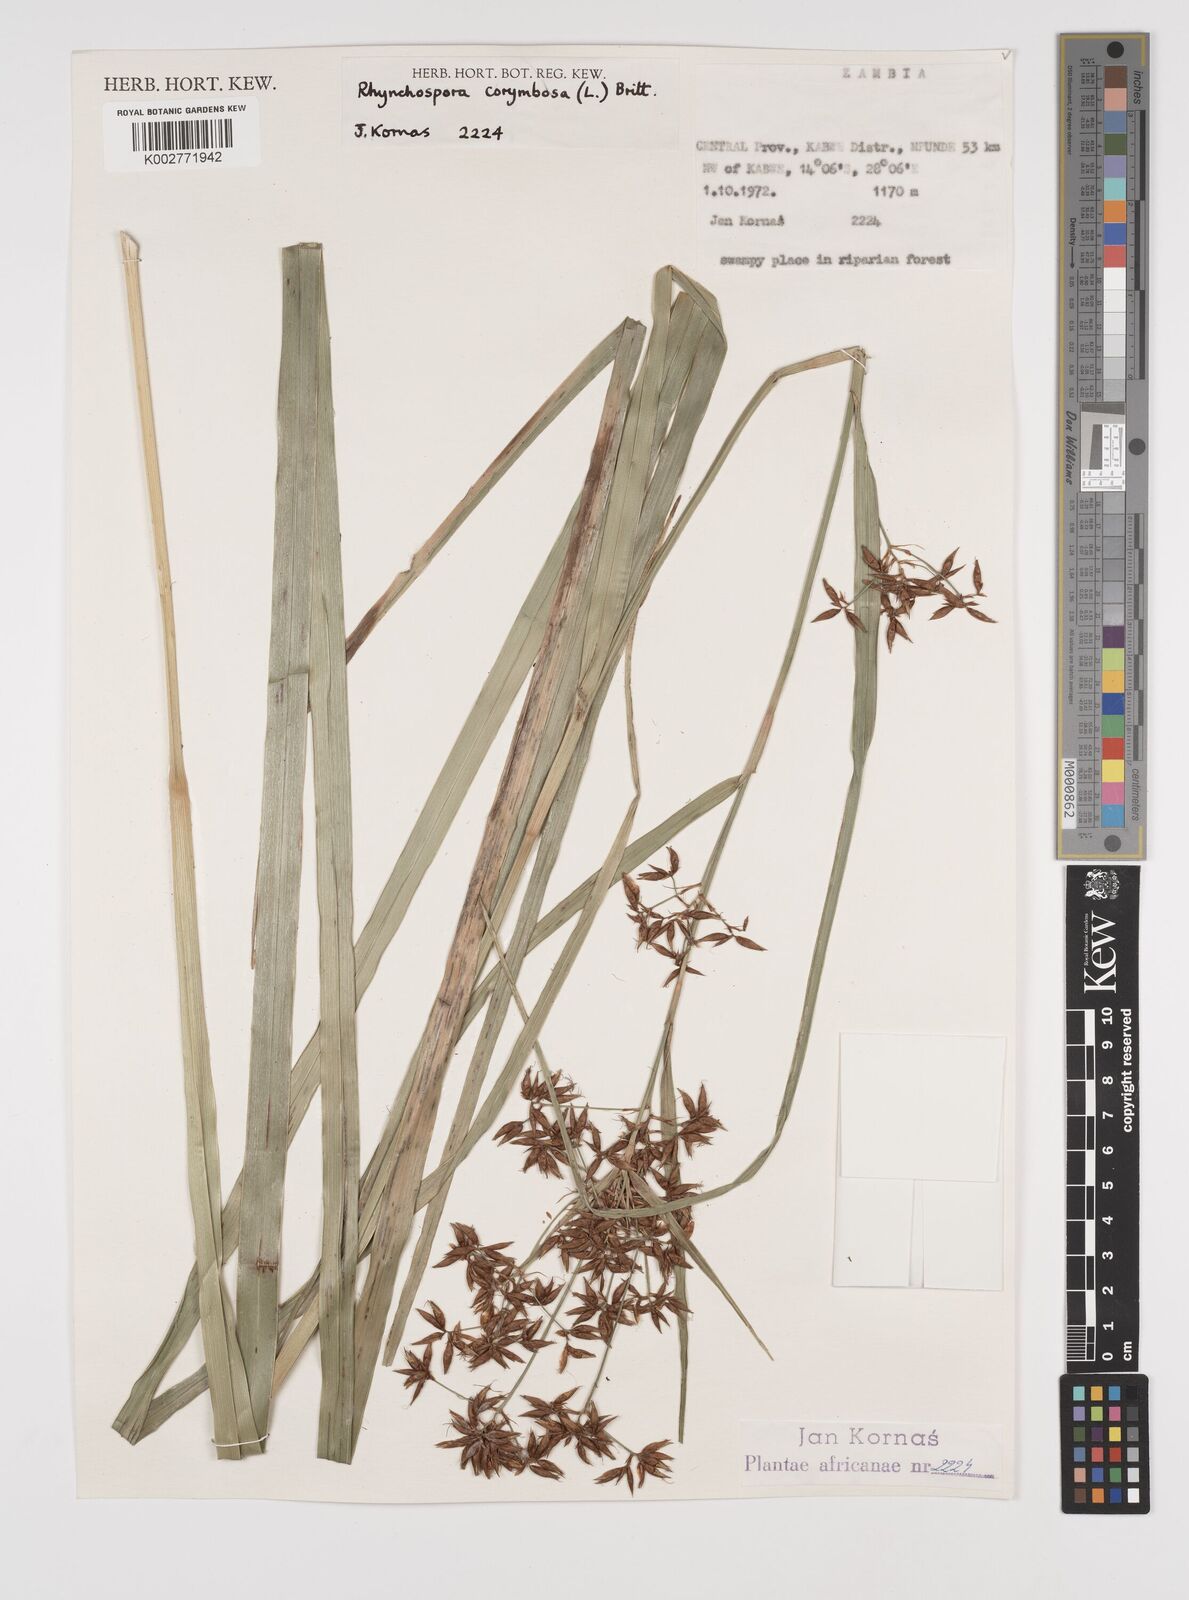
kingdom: Plantae
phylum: Tracheophyta
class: Liliopsida
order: Poales
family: Cyperaceae
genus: Rhynchospora
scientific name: Rhynchospora corymbosa
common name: Golden beak sedge
